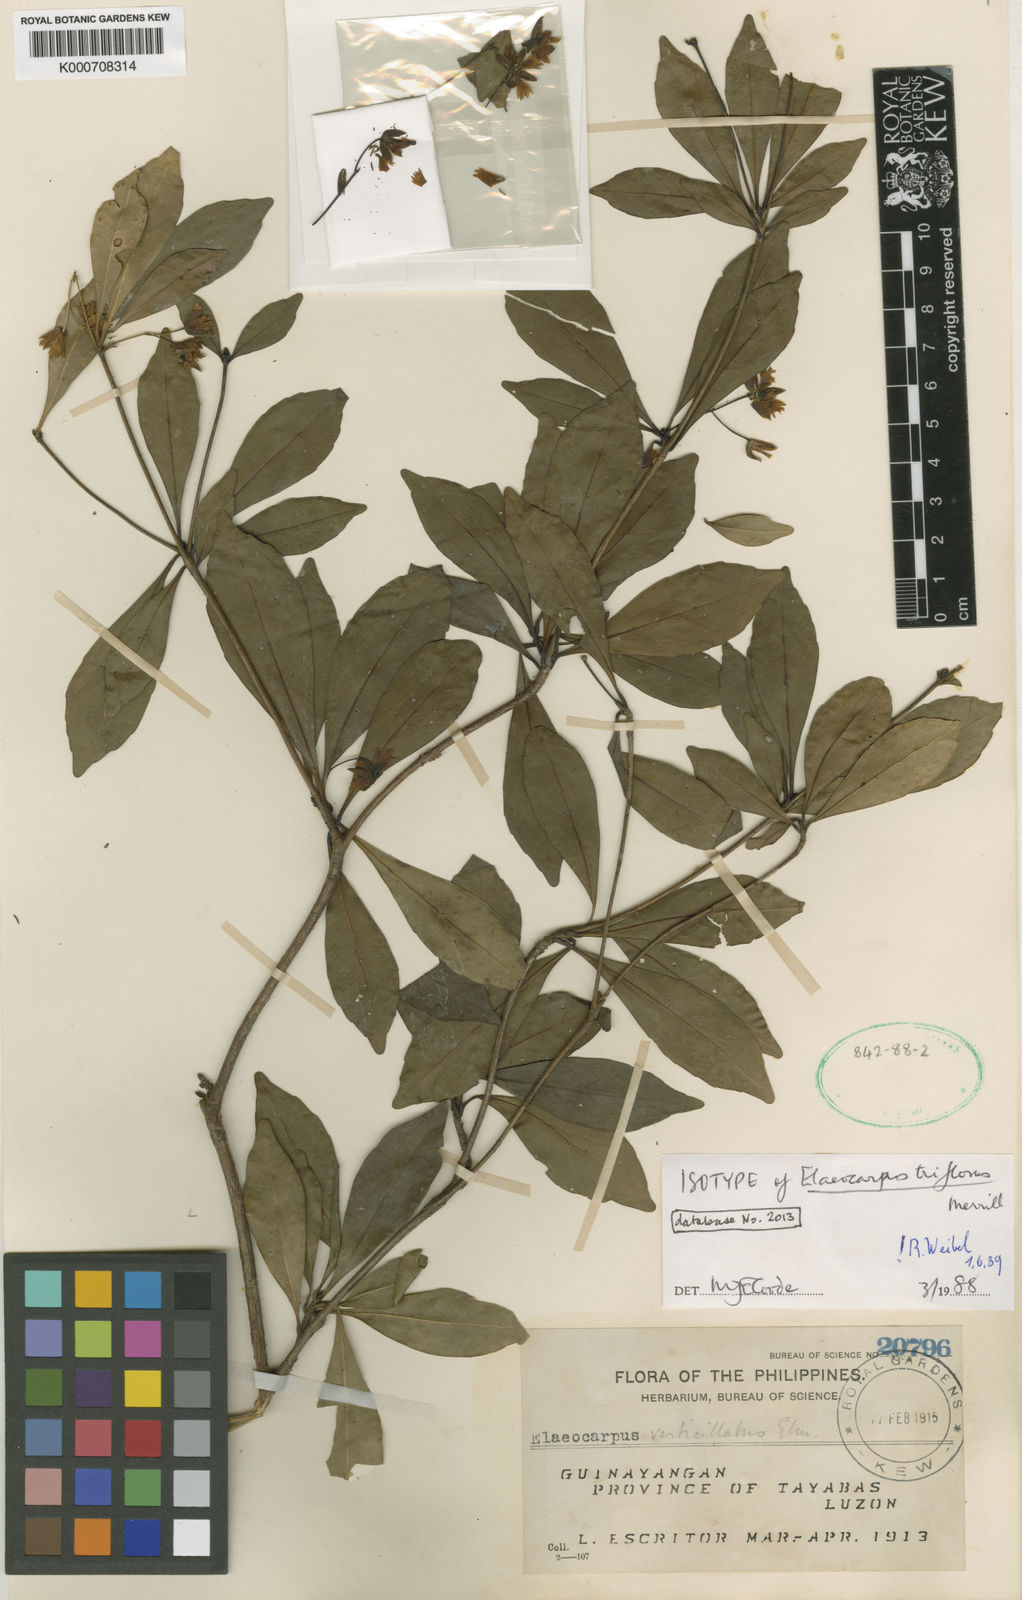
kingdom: Plantae
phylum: Tracheophyta
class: Magnoliopsida
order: Oxalidales
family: Elaeocarpaceae
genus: Elaeocarpus
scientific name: Elaeocarpus halconensis
